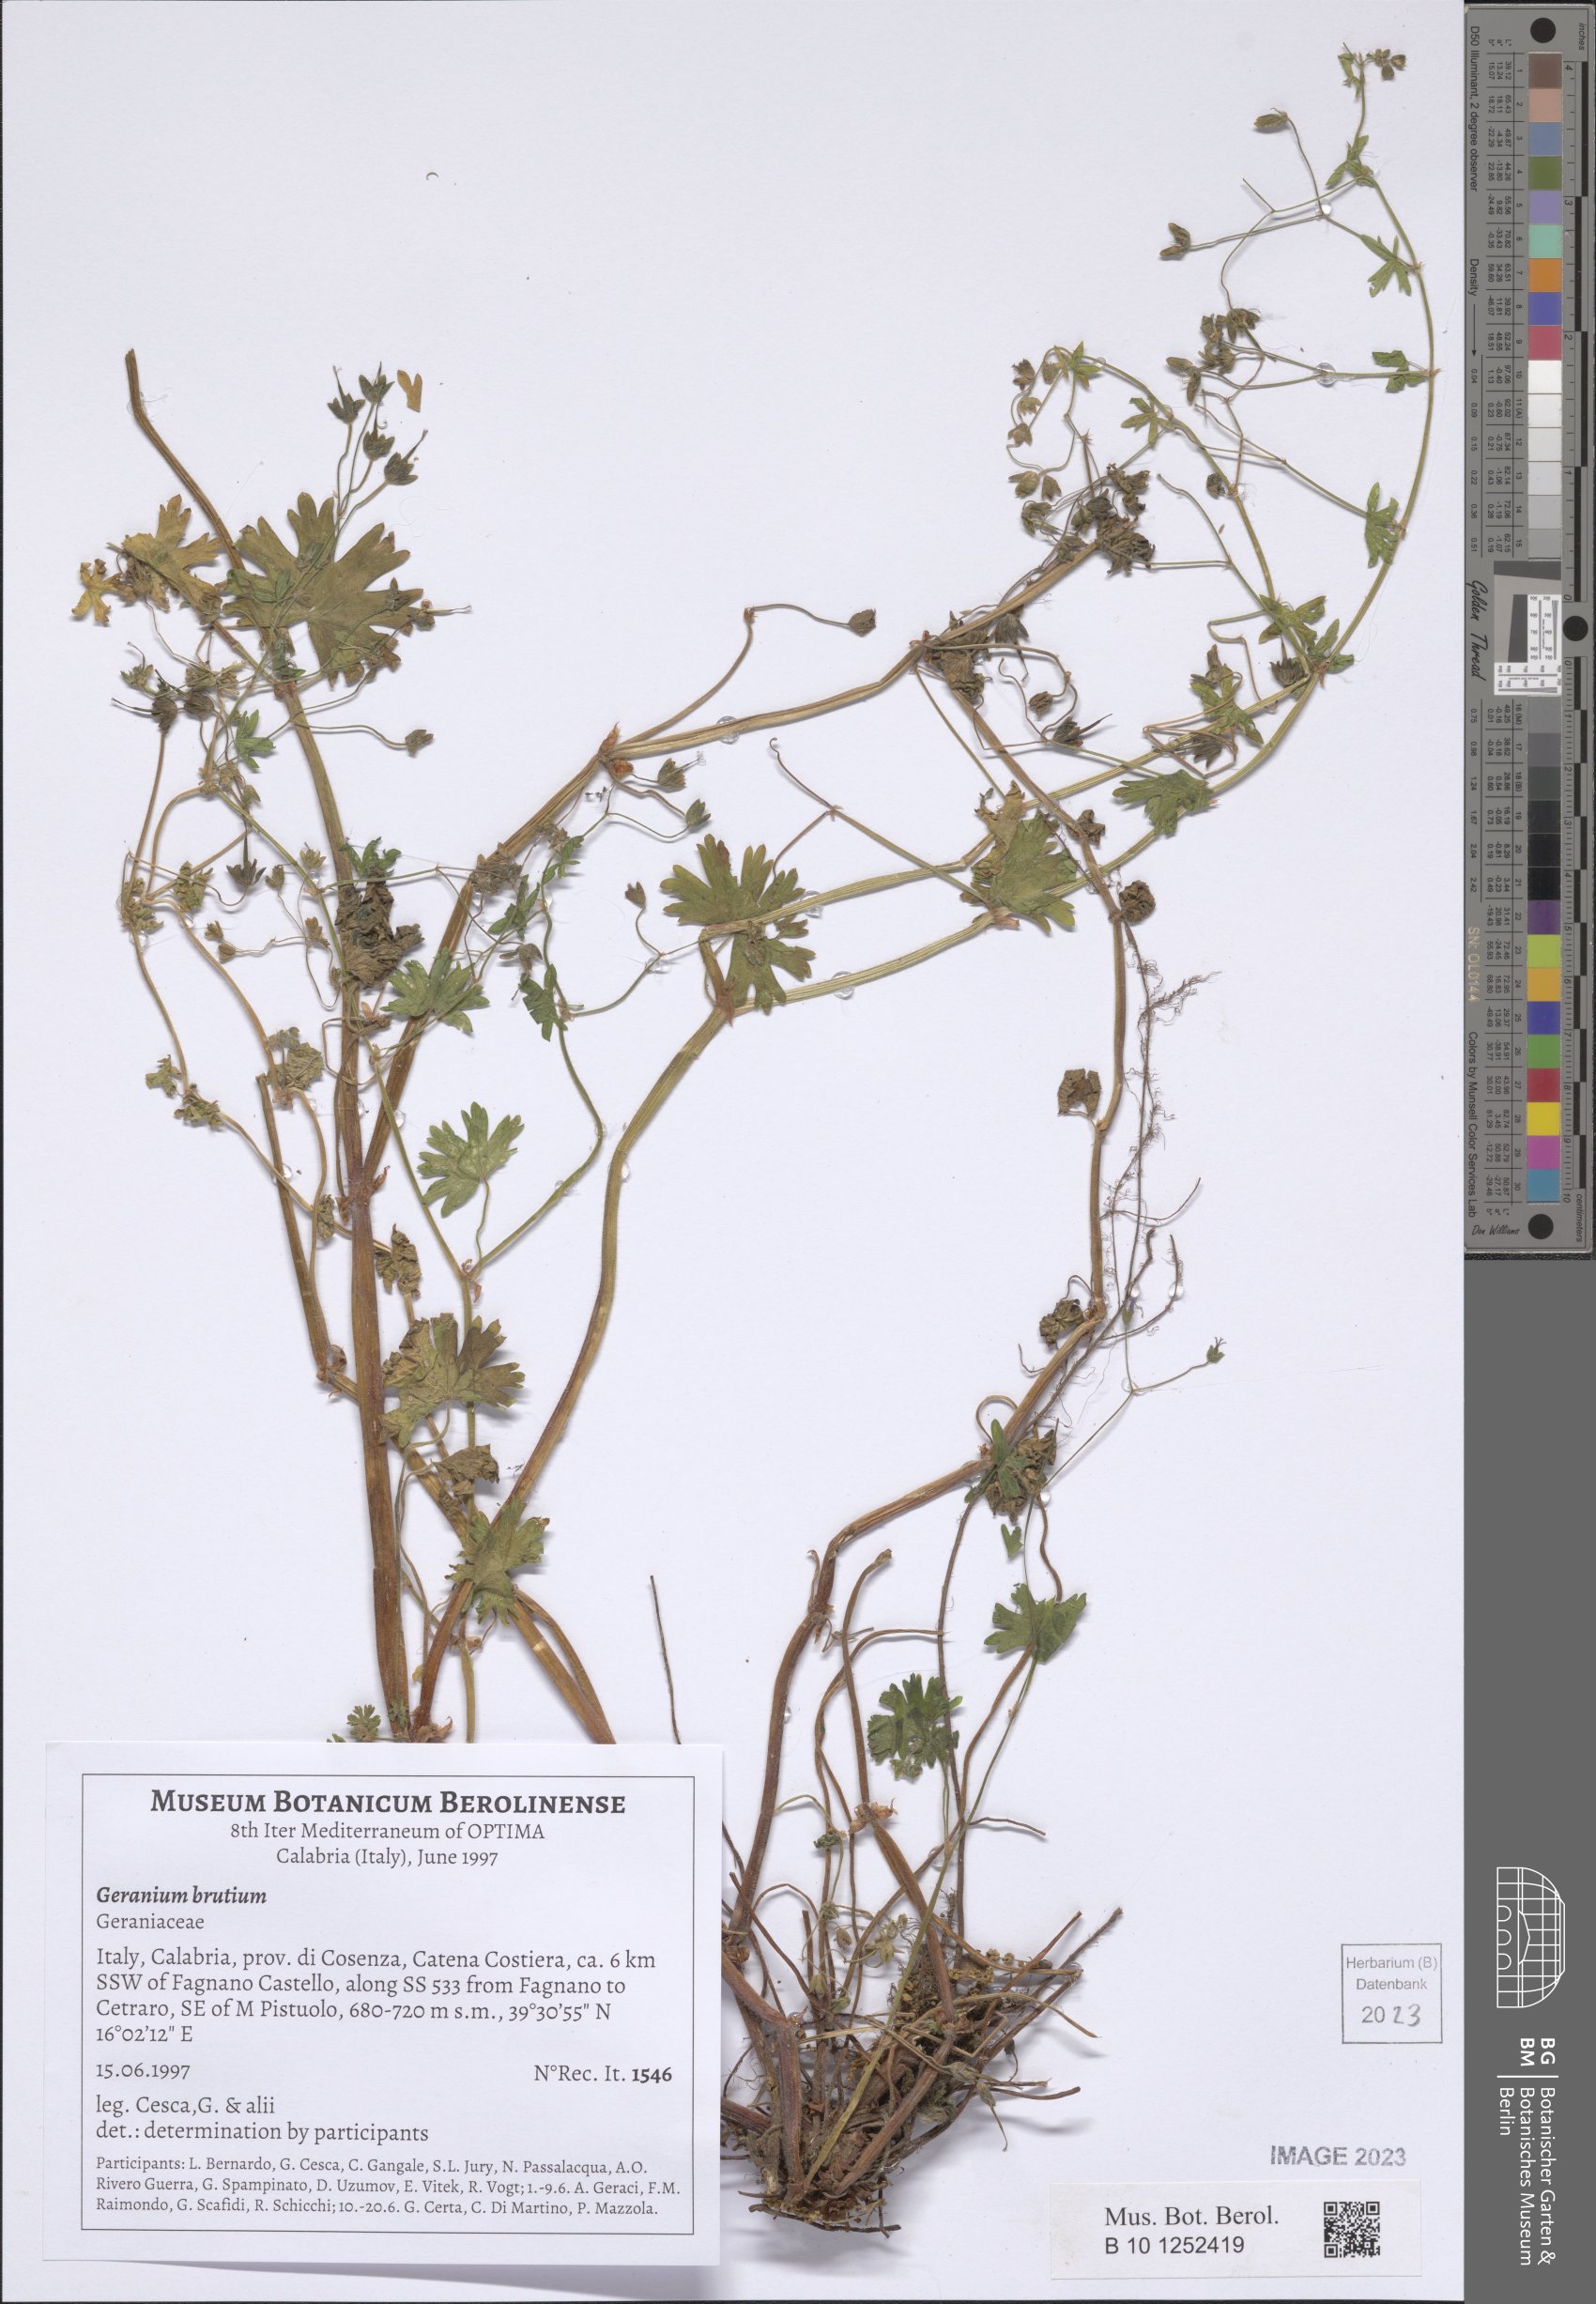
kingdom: Plantae
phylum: Tracheophyta
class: Magnoliopsida
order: Geraniales
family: Geraniaceae
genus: Geranium
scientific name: Geranium molle
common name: Dove's-foot crane's-bill
